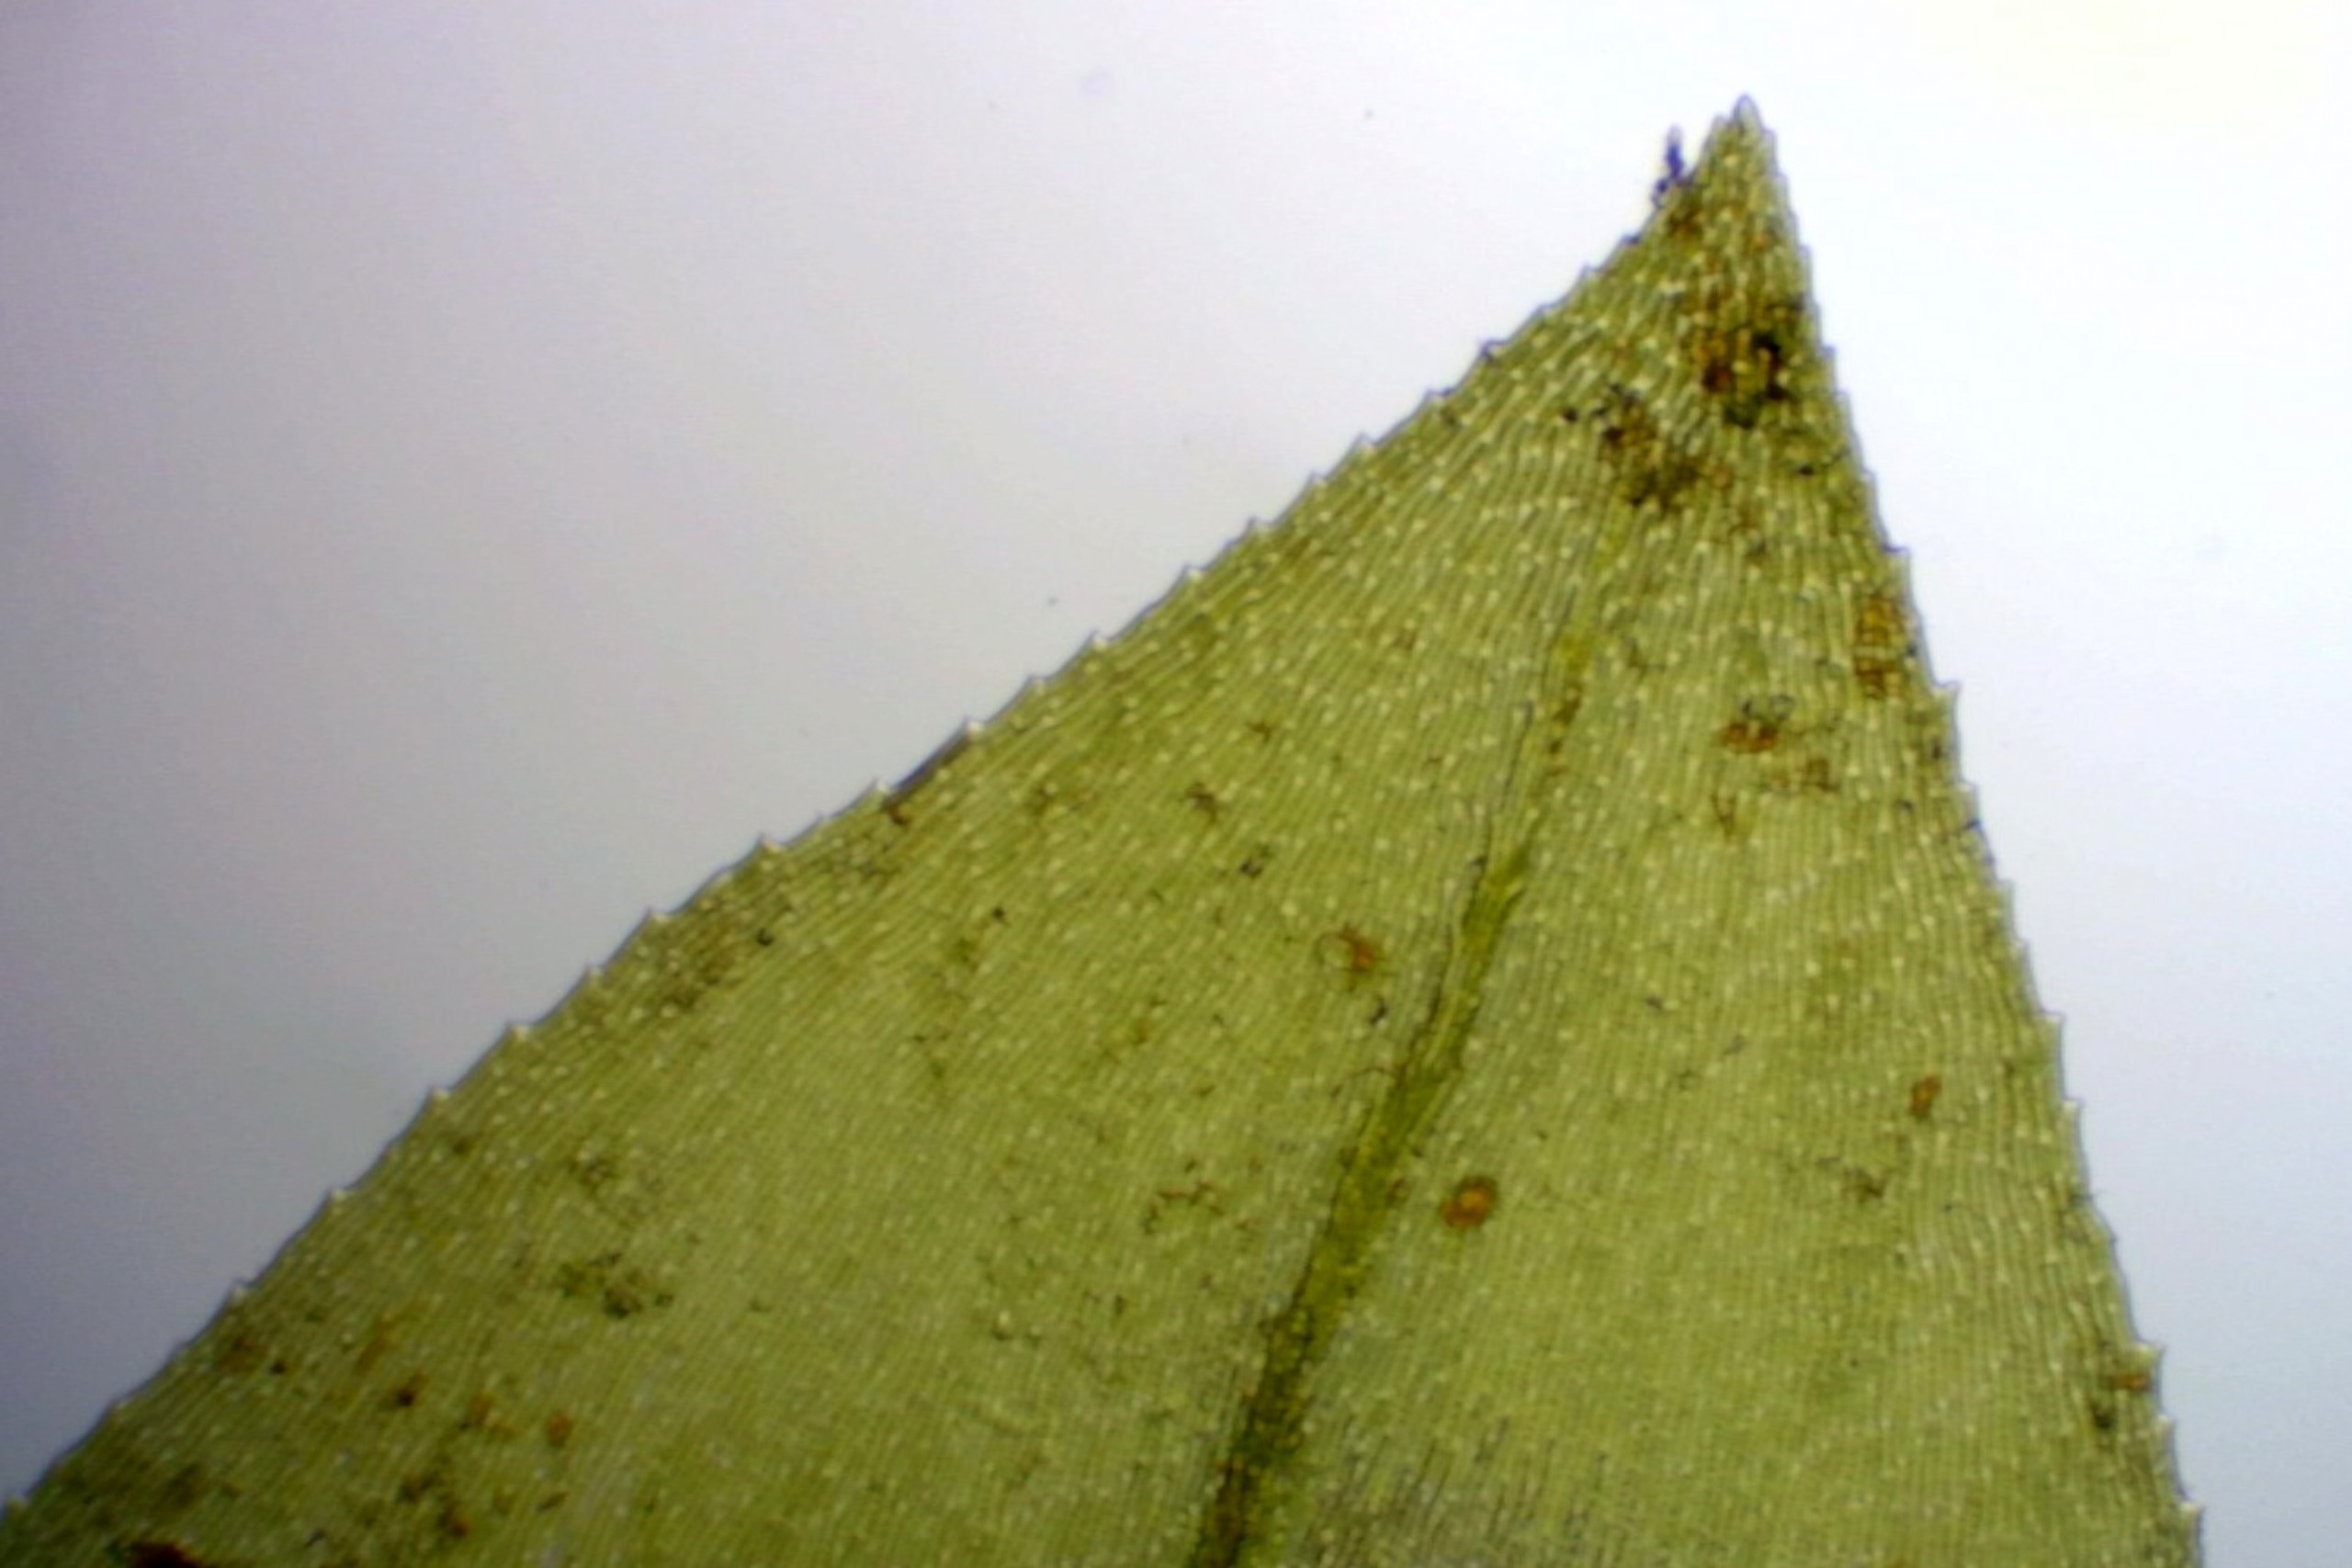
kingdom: Plantae
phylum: Bryophyta
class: Bryopsida
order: Hypnales
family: Brachytheciaceae
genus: Rhynchostegium
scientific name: Rhynchostegium riparioides
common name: Robust strømmos
